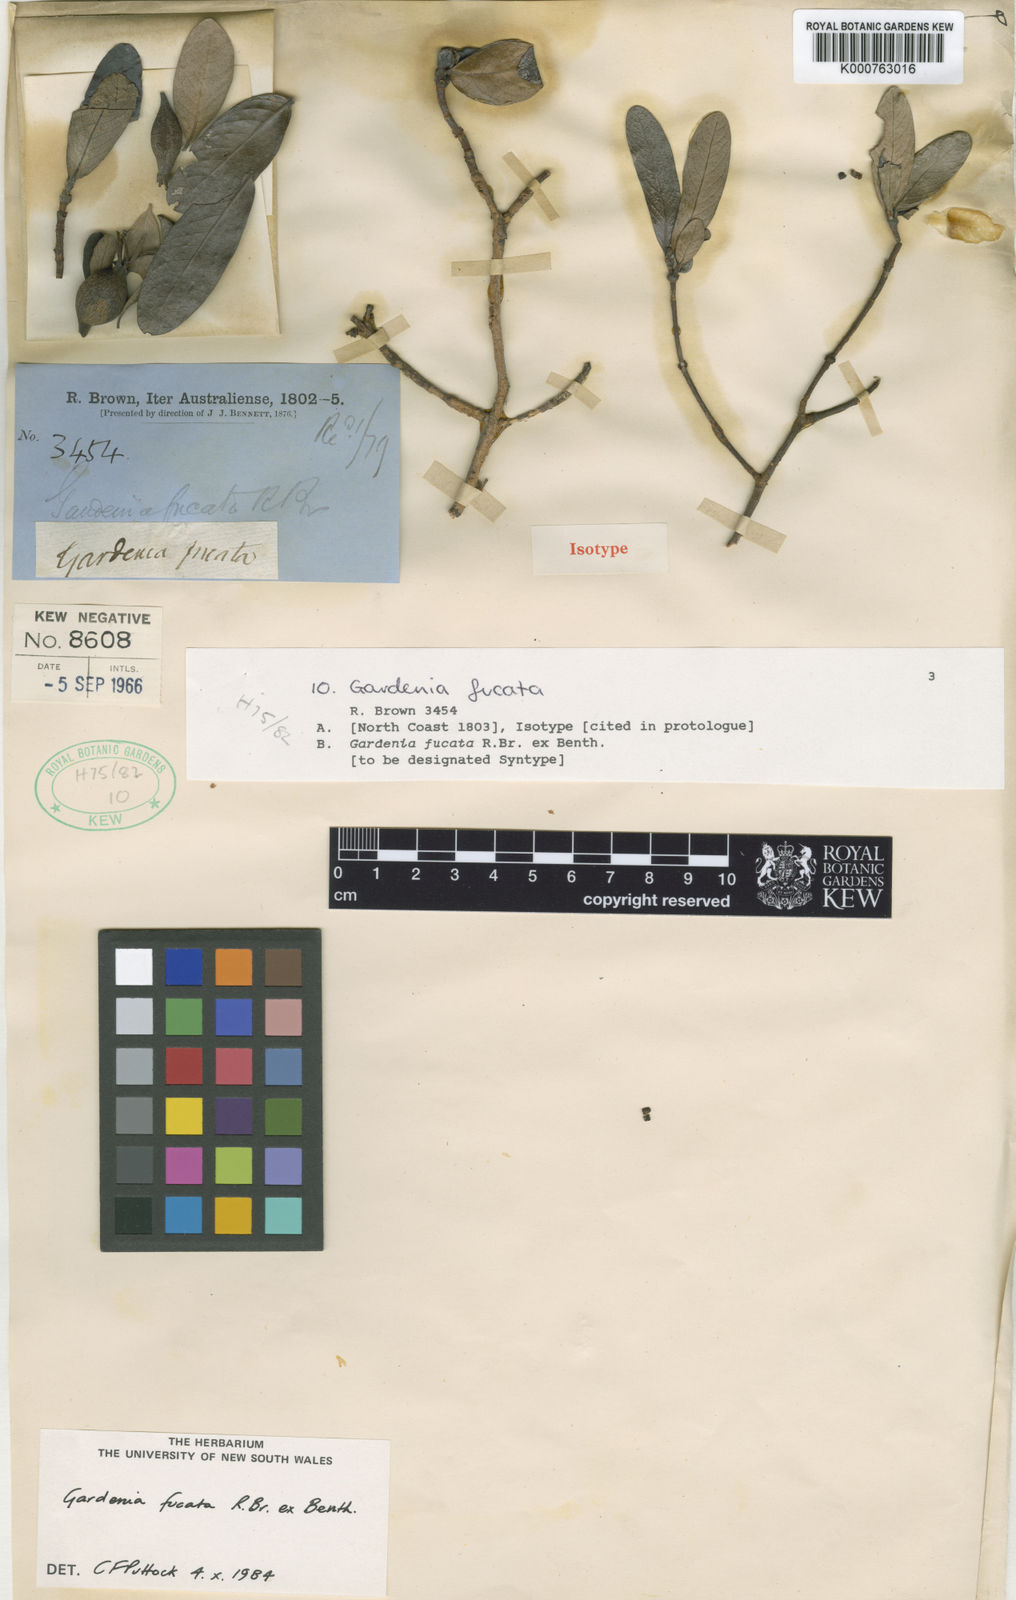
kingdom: Plantae
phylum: Tracheophyta
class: Magnoliopsida
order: Gentianales
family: Rubiaceae
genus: Gardenia
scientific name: Gardenia fucata
